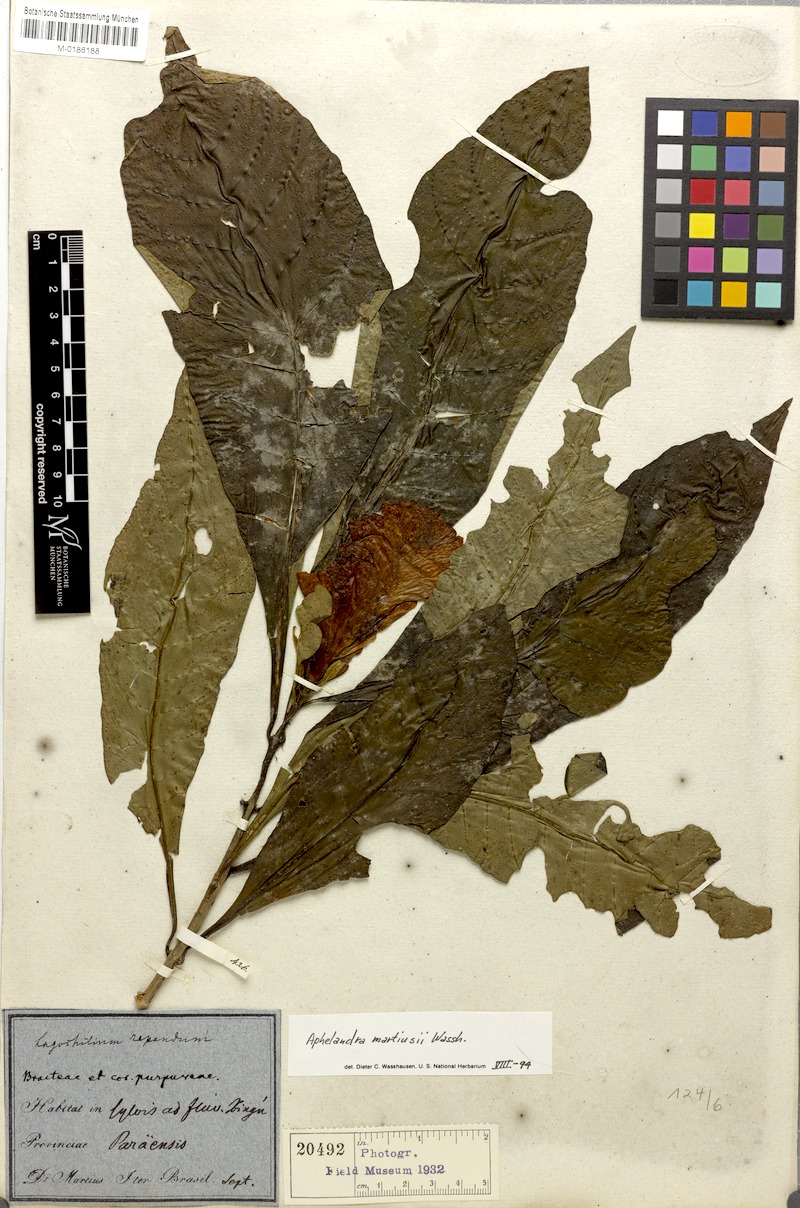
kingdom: Plantae
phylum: Tracheophyta
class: Magnoliopsida
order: Lamiales
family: Acanthaceae
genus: Aphelandra
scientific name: Aphelandra martiusii
